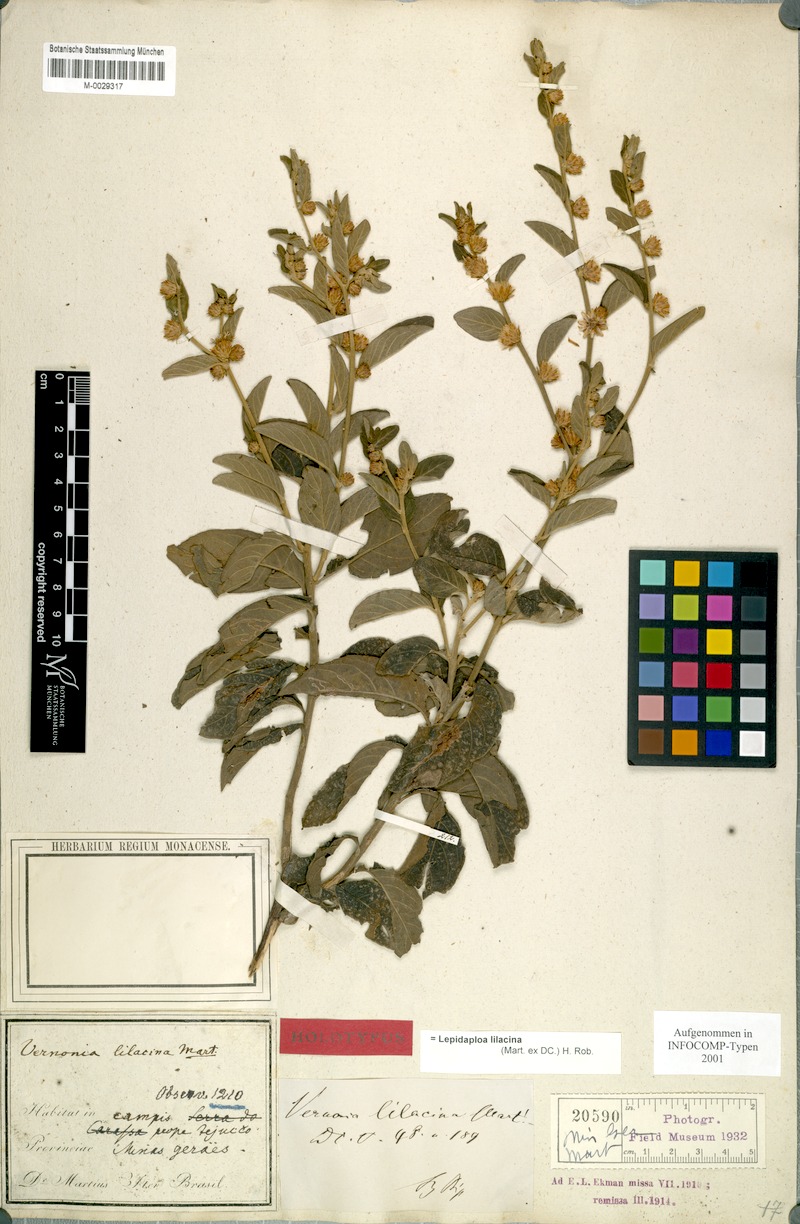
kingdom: Plantae
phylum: Tracheophyta
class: Magnoliopsida
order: Asterales
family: Asteraceae
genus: Lepidaploa
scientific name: Lepidaploa lilacina
